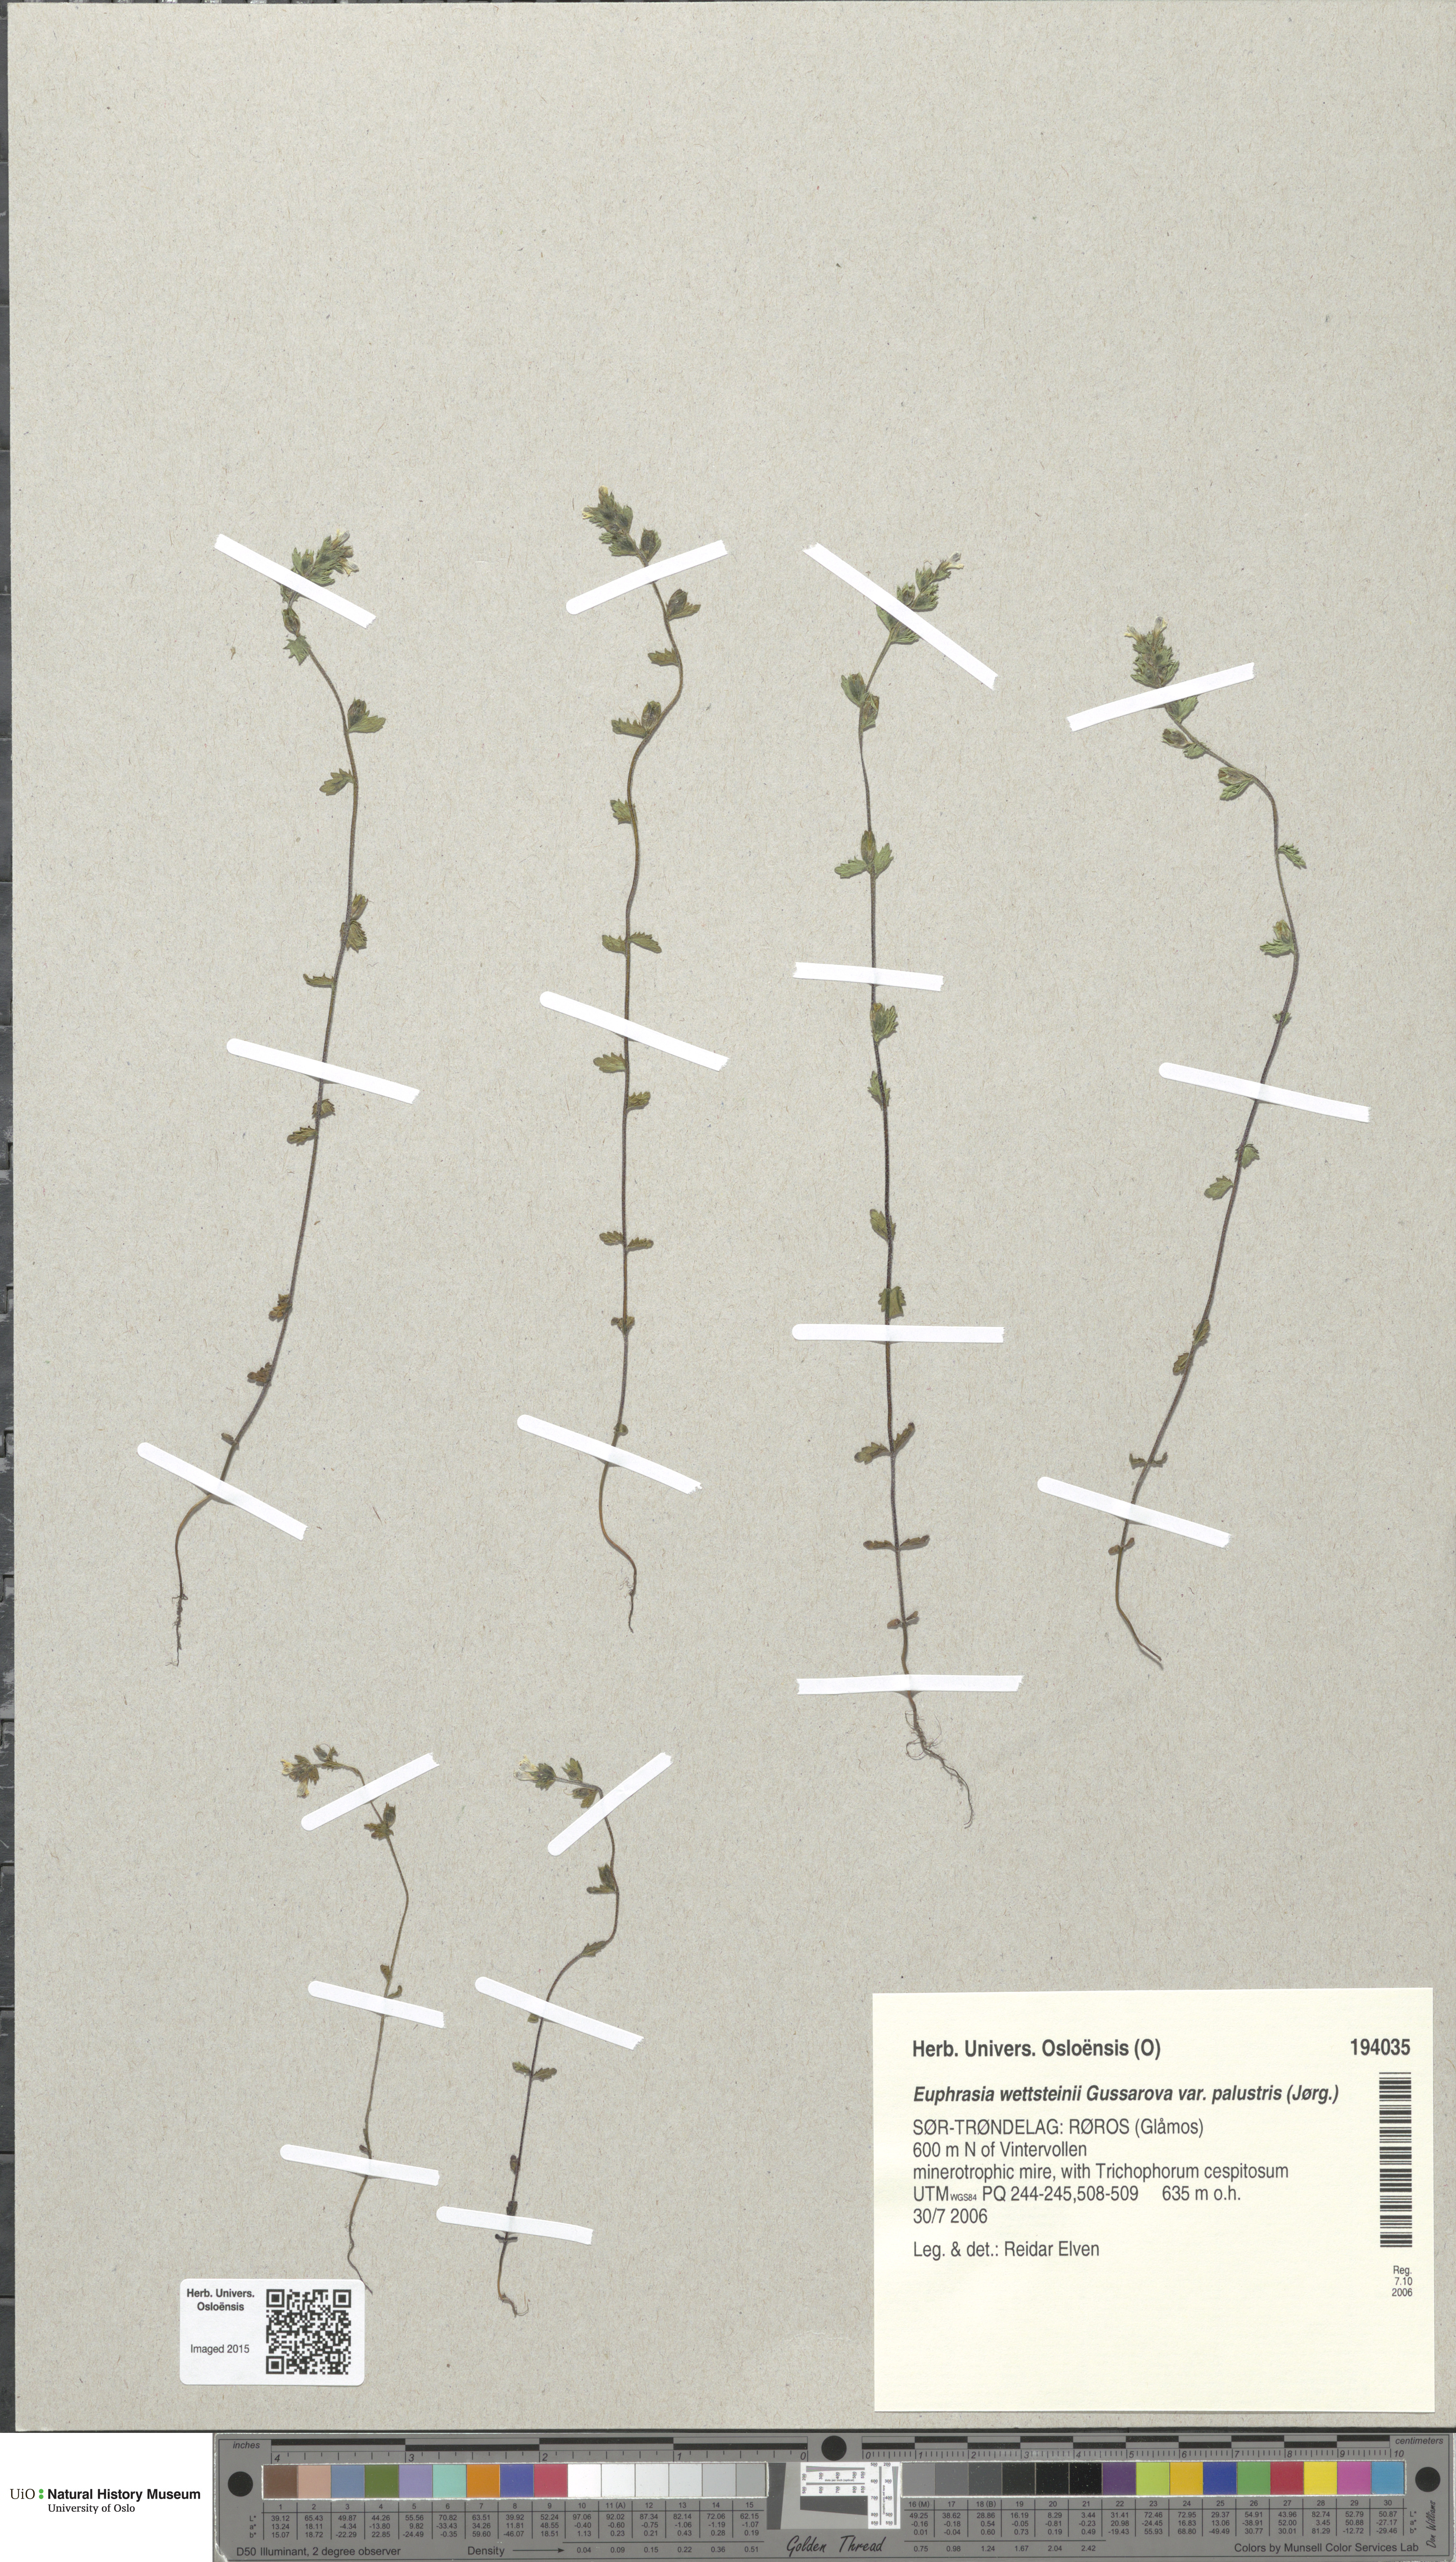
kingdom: Plantae
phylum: Tracheophyta
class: Magnoliopsida
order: Lamiales
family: Orobanchaceae
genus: Euphrasia
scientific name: Euphrasia wettsteinii
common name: Wettstein's eyebright
